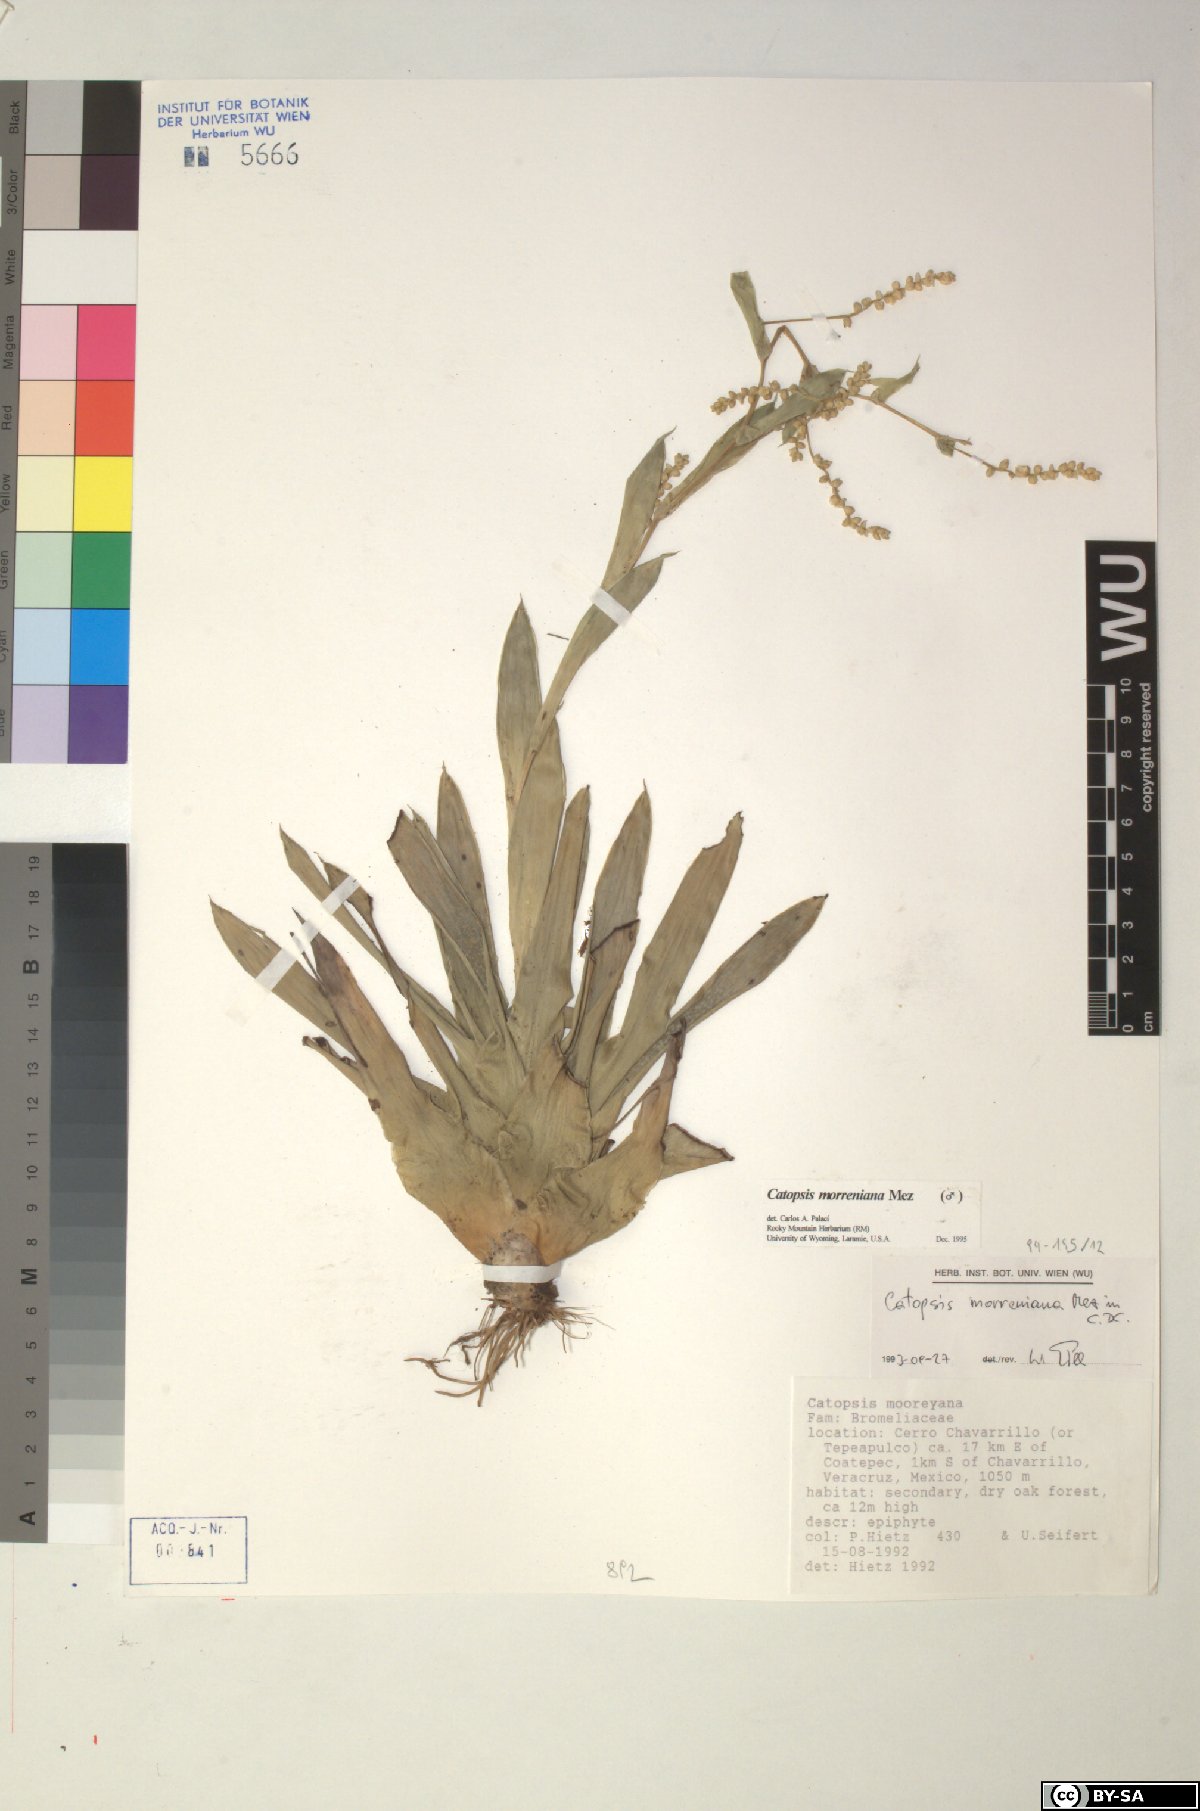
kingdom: Plantae
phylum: Tracheophyta
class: Liliopsida
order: Poales
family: Bromeliaceae
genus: Catopsis
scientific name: Catopsis morreniana
